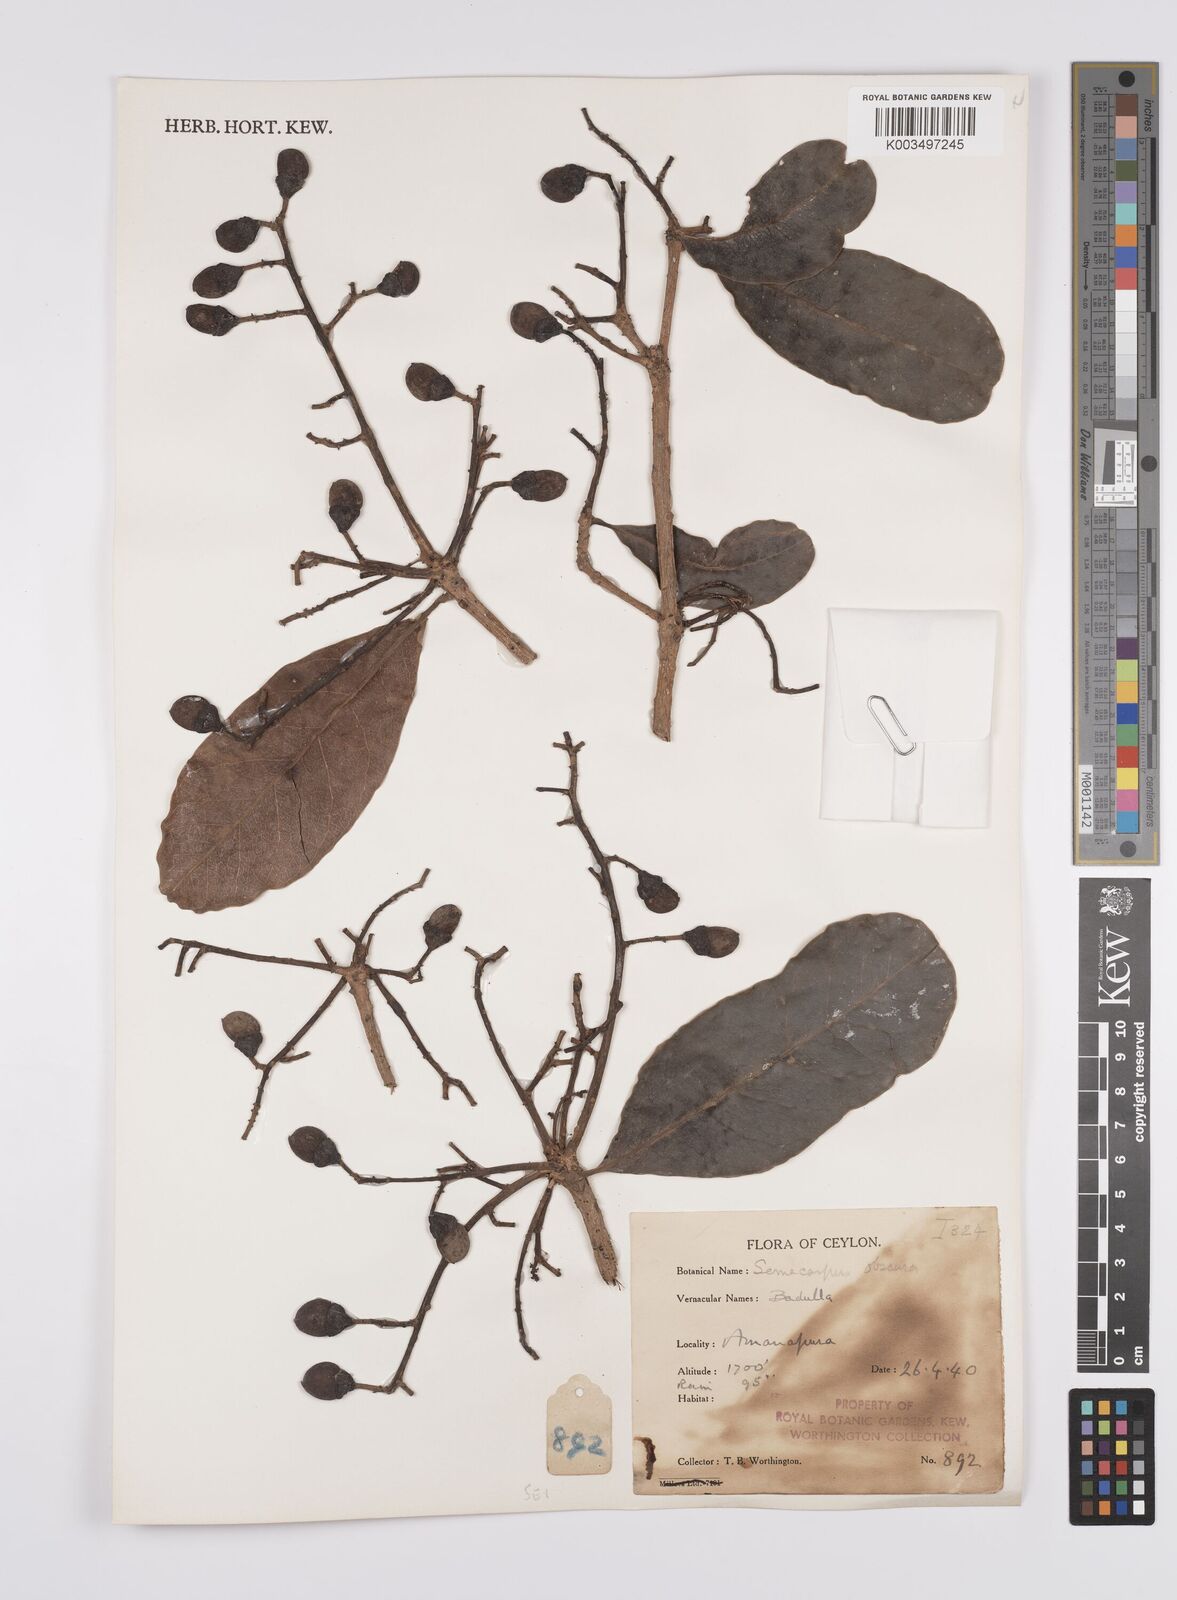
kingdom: Plantae
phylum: Tracheophyta
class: Magnoliopsida
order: Sapindales
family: Anacardiaceae
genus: Semecarpus
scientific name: Semecarpus walkeri
